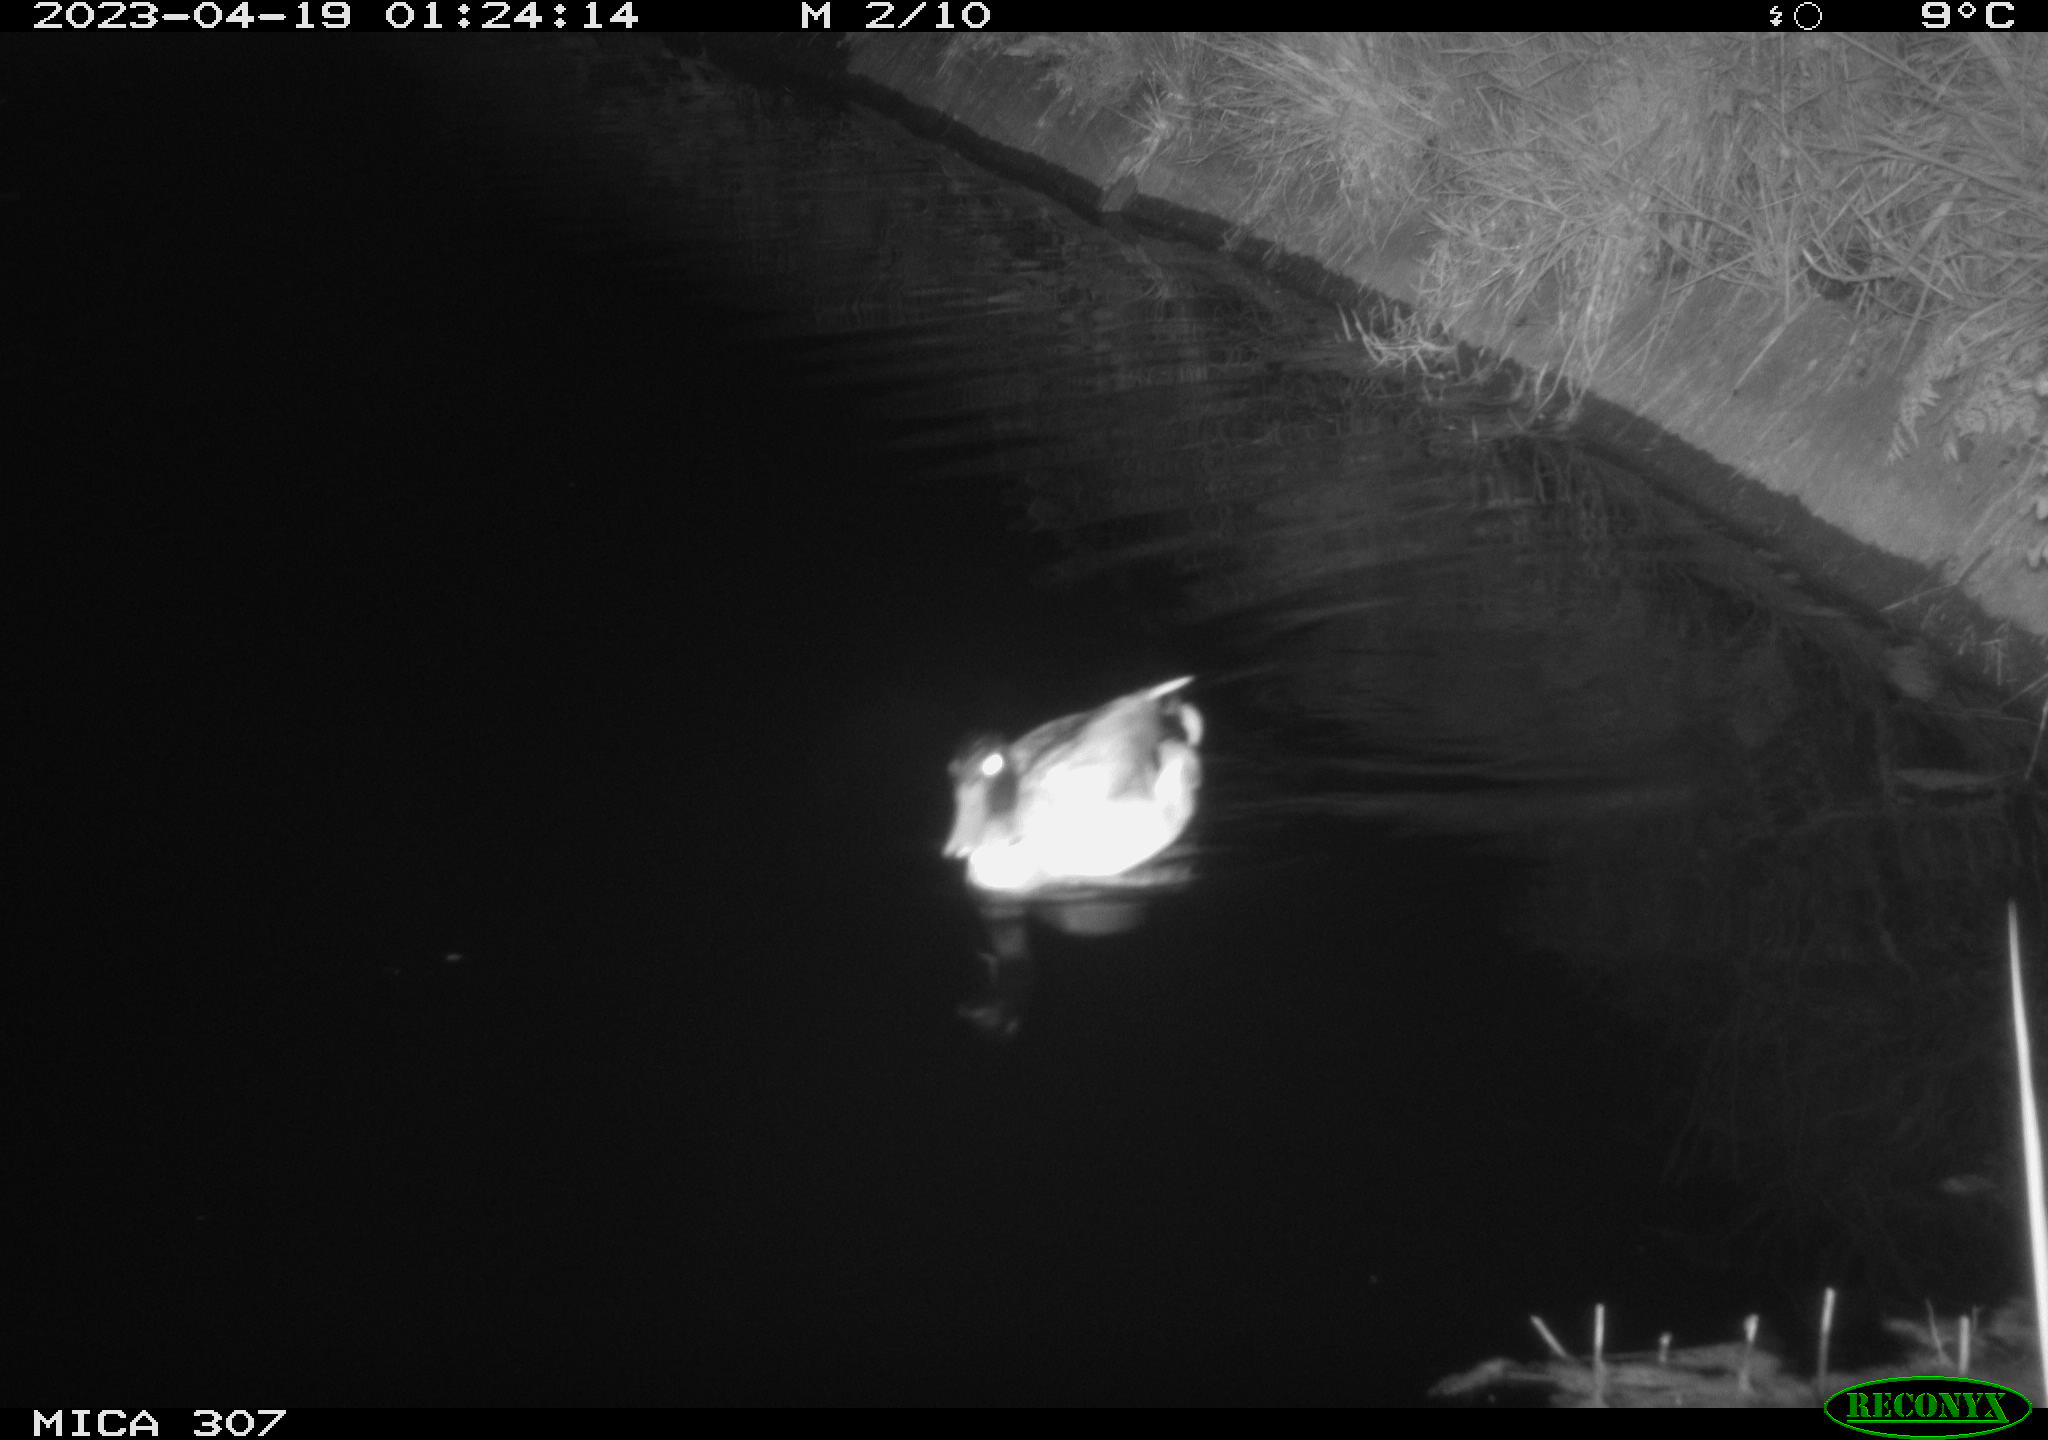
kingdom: Animalia
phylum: Chordata
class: Aves
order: Anseriformes
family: Anatidae
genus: Anas
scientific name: Anas
